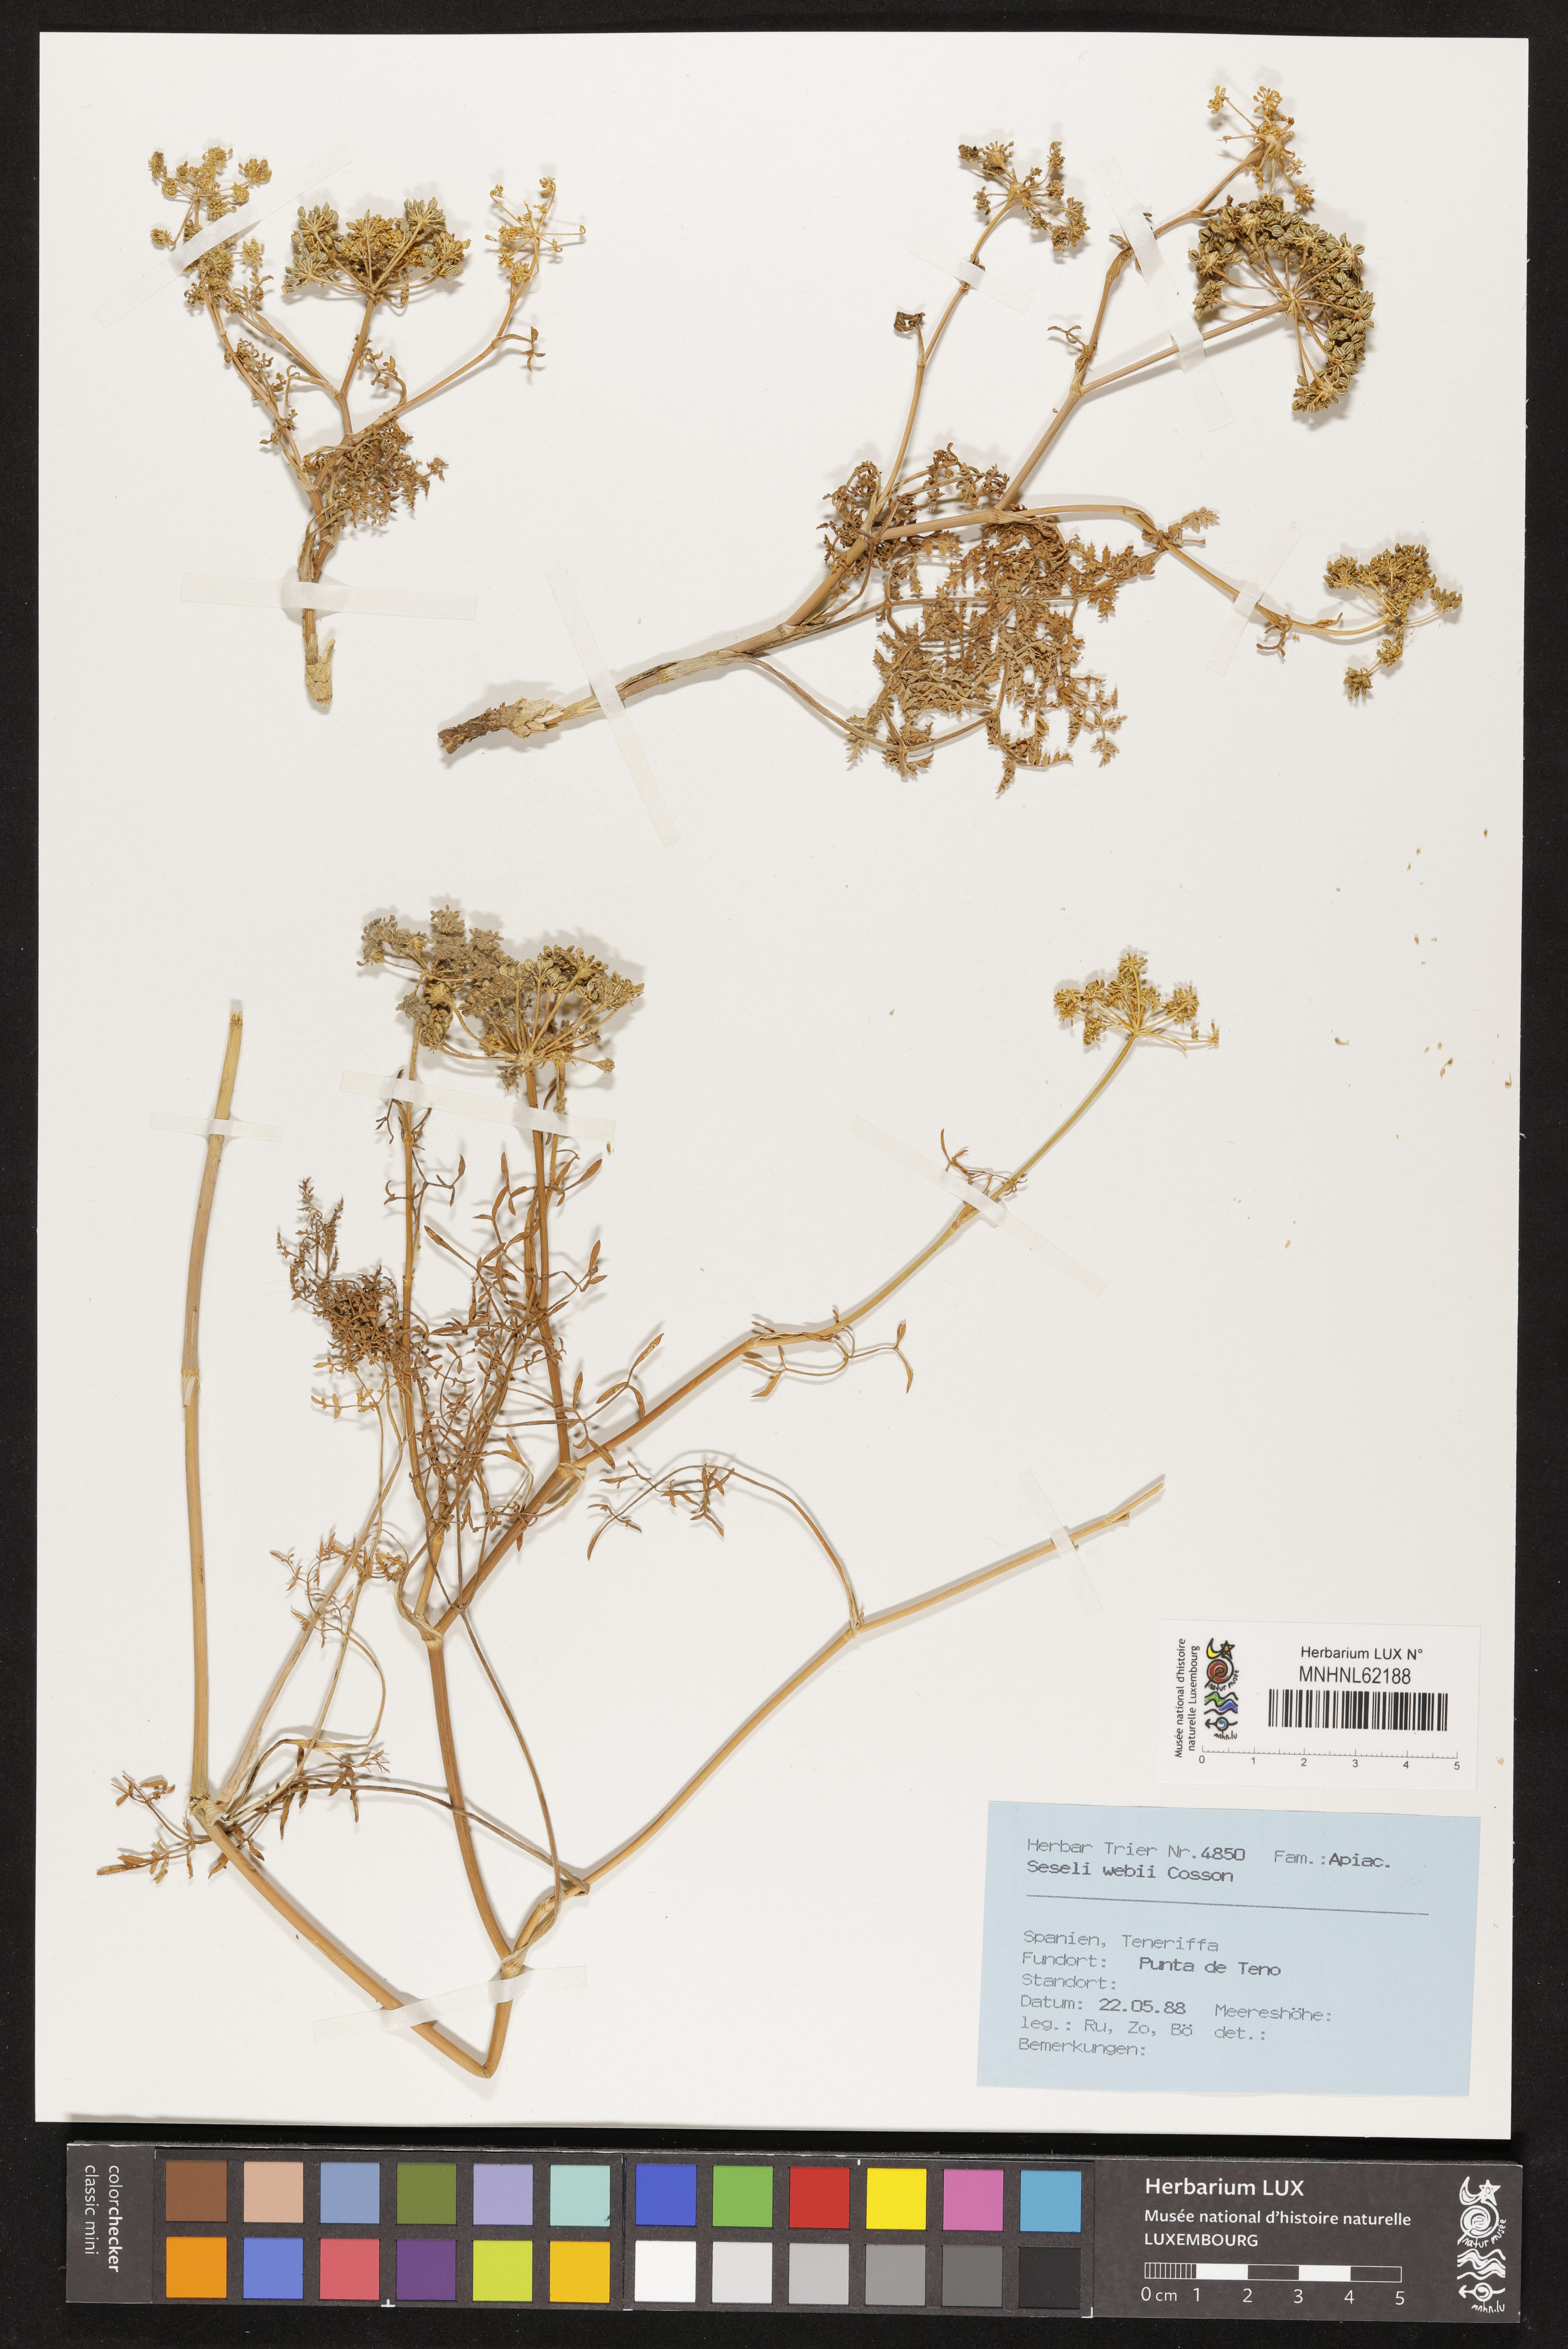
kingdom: Plantae
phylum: Tracheophyta
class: Magnoliopsida
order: Apiales
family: Apiaceae
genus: Rutheopsis
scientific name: Rutheopsis tortuosa
